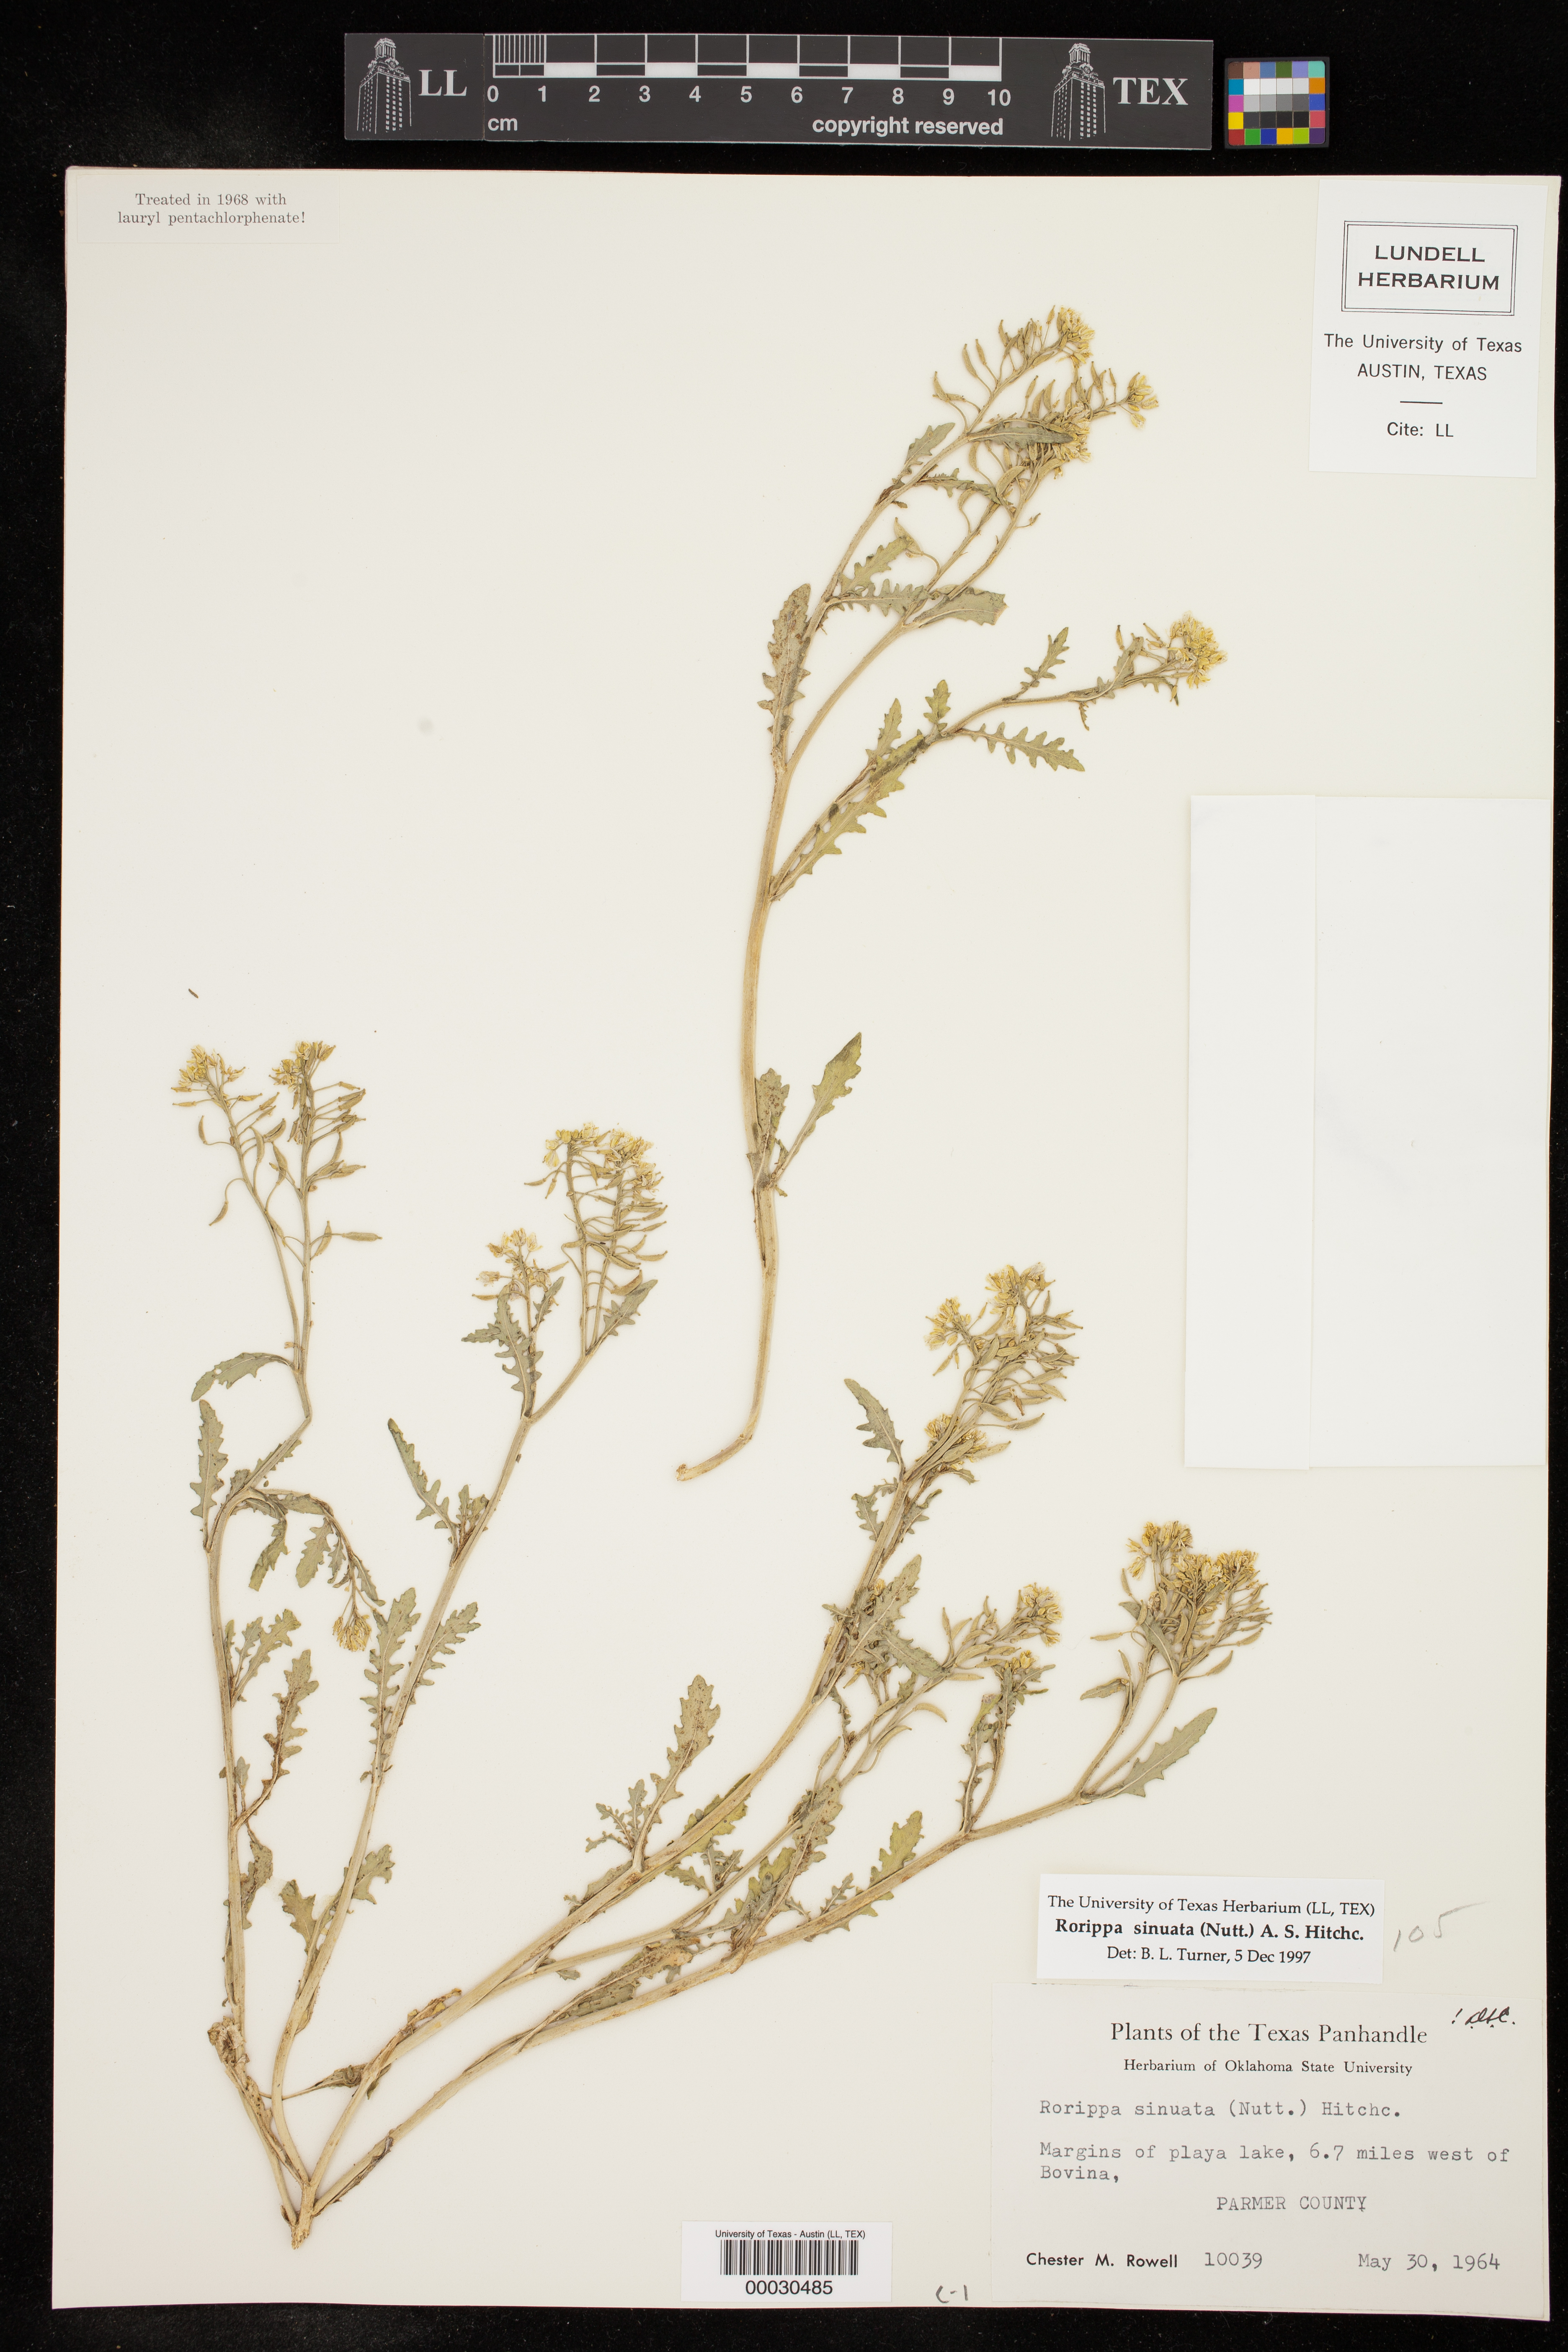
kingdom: Plantae
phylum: Tracheophyta
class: Magnoliopsida
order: Brassicales
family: Brassicaceae
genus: Rorippa
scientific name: Rorippa sinuata
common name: Spread yellow cress
